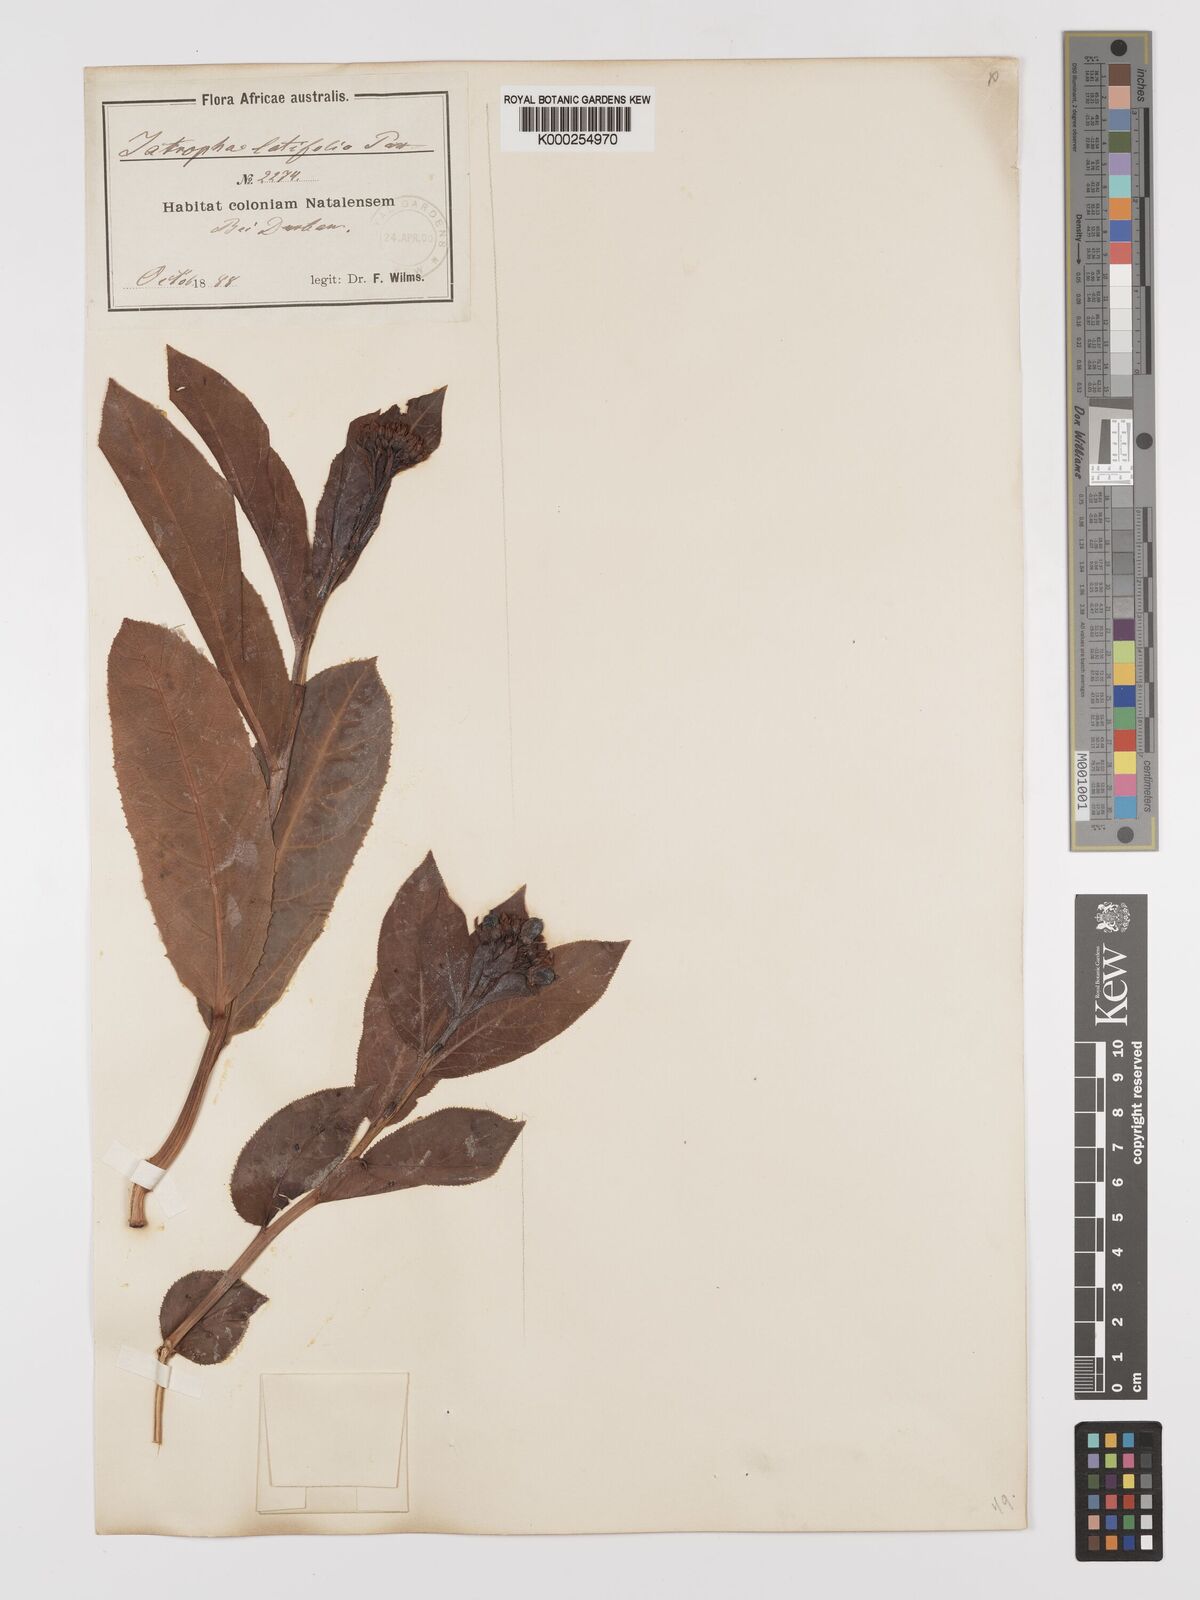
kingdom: Plantae
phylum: Tracheophyta
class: Magnoliopsida
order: Malpighiales
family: Euphorbiaceae
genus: Jatropha
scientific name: Jatropha latifolia
